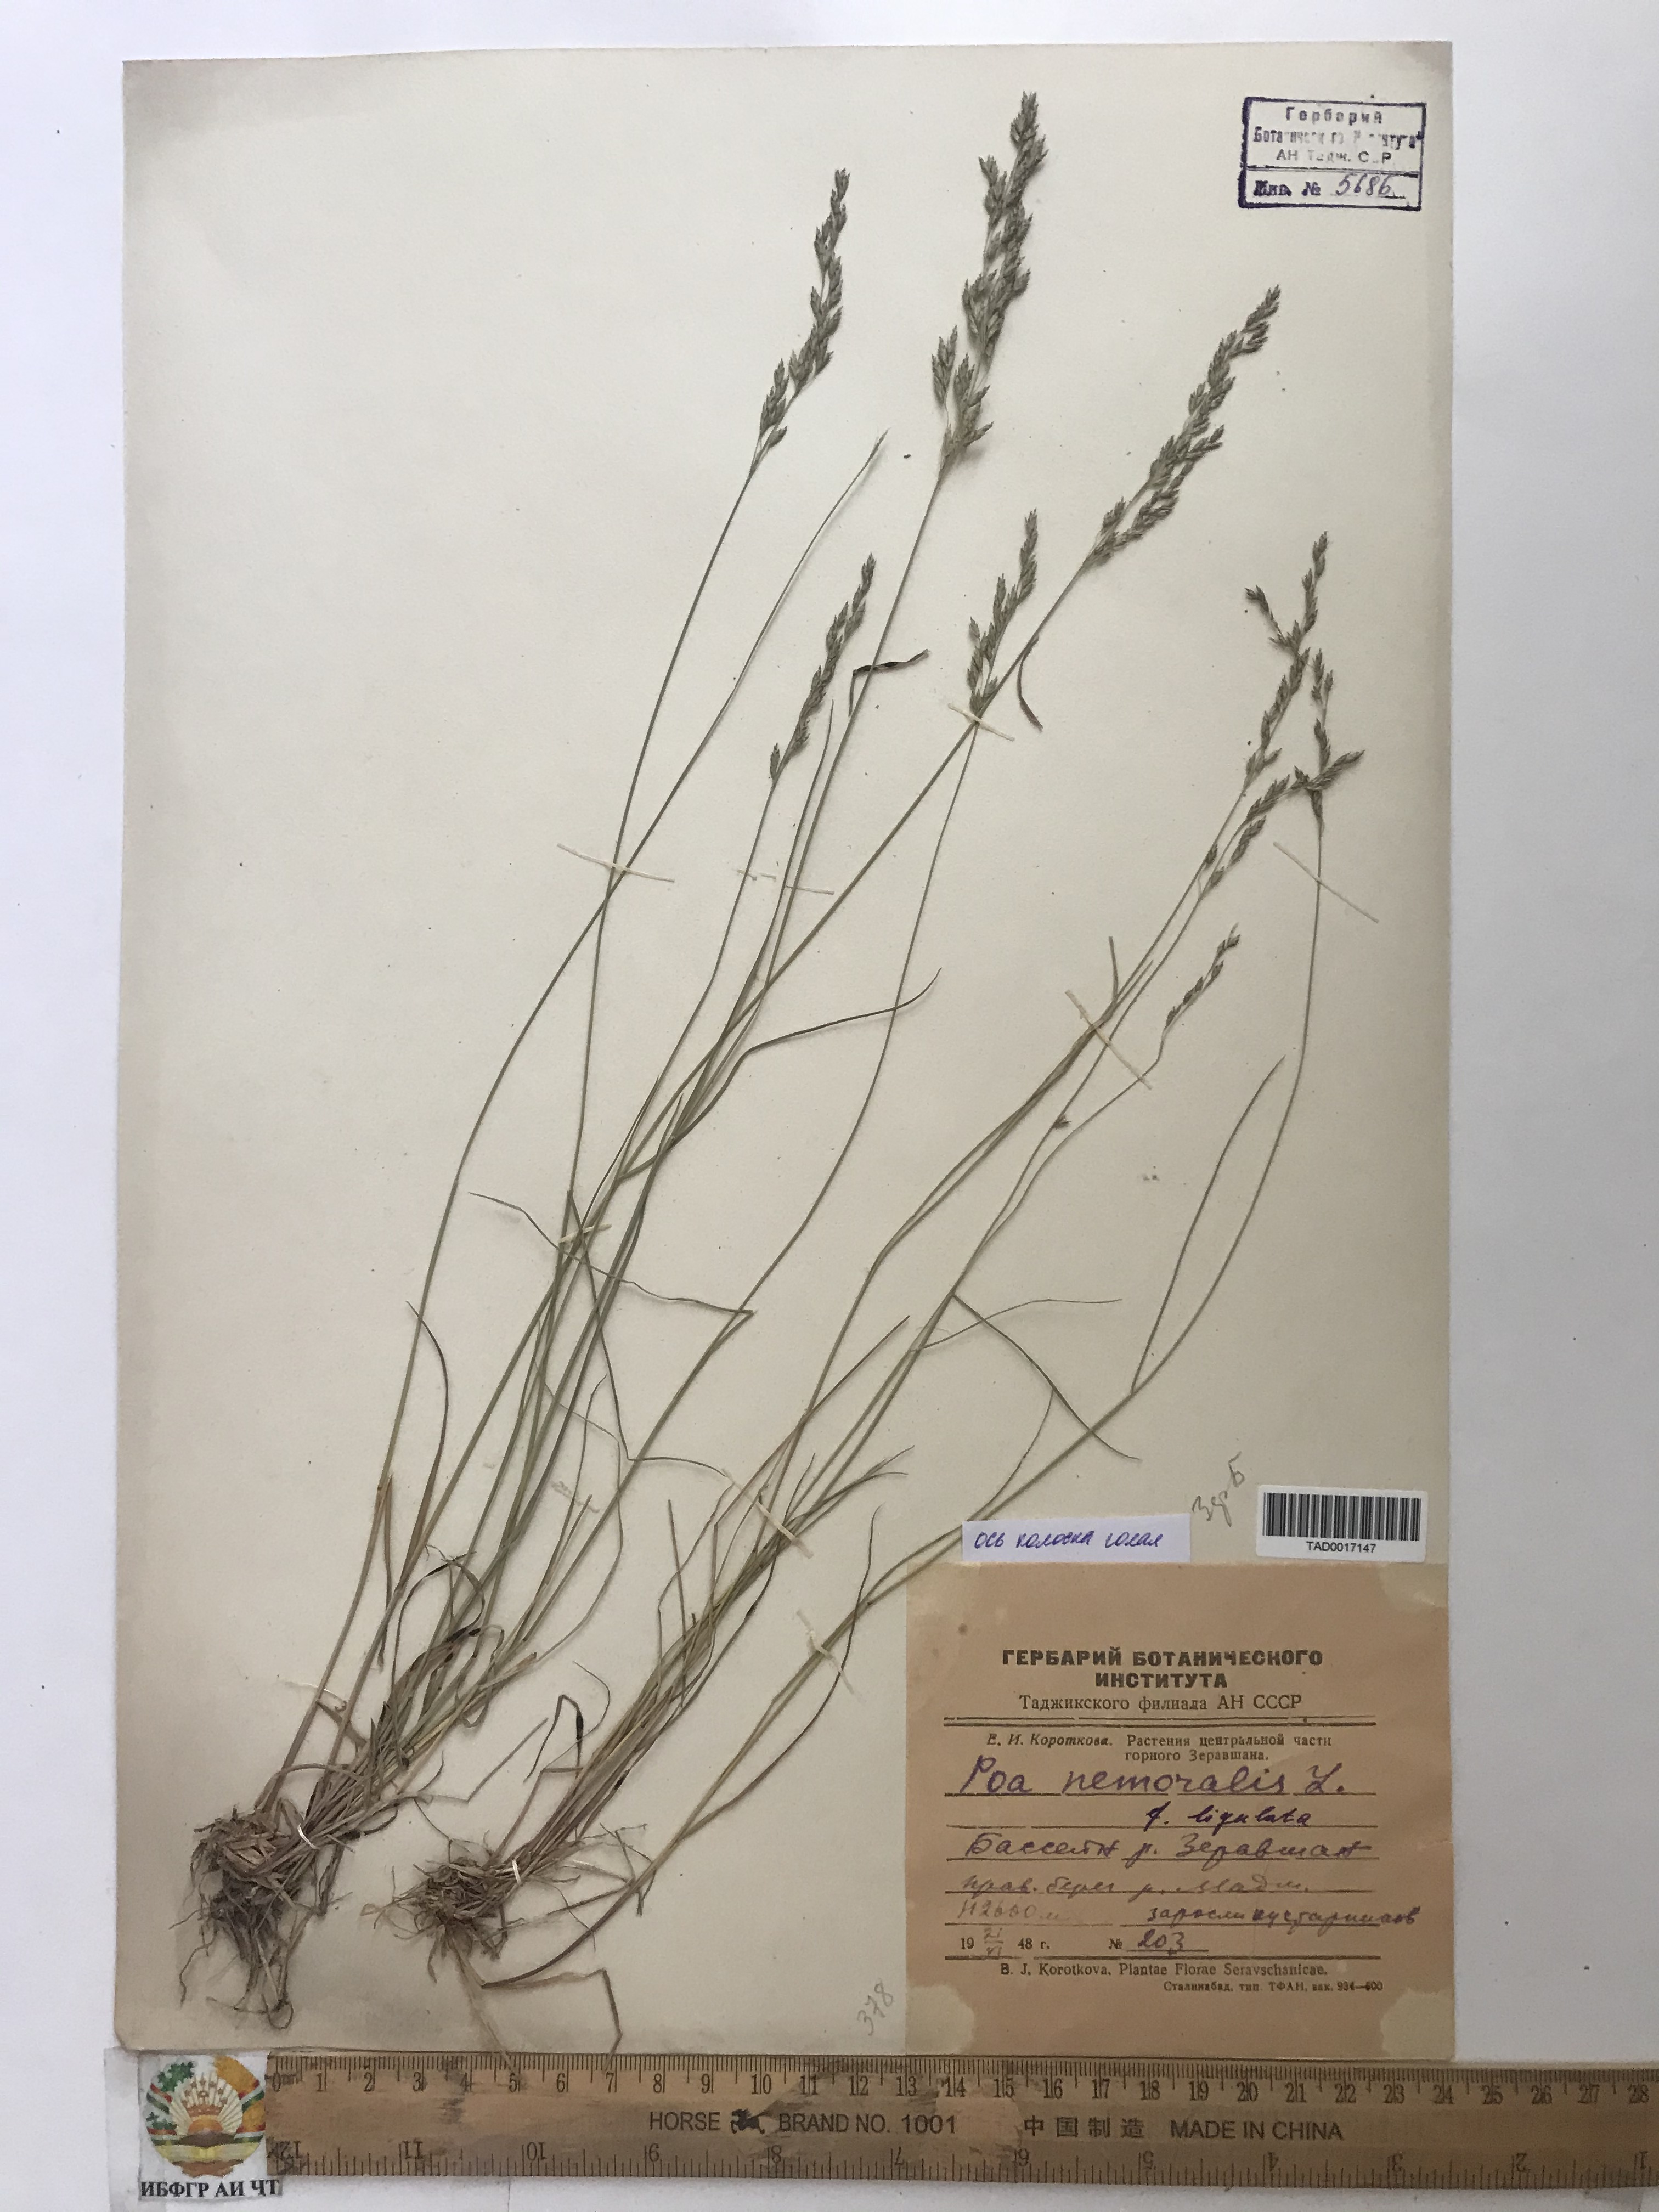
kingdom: Plantae
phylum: Tracheophyta
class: Liliopsida
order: Poales
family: Poaceae
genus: Poa
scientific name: Poa nemoralis
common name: Wood bluegrass
